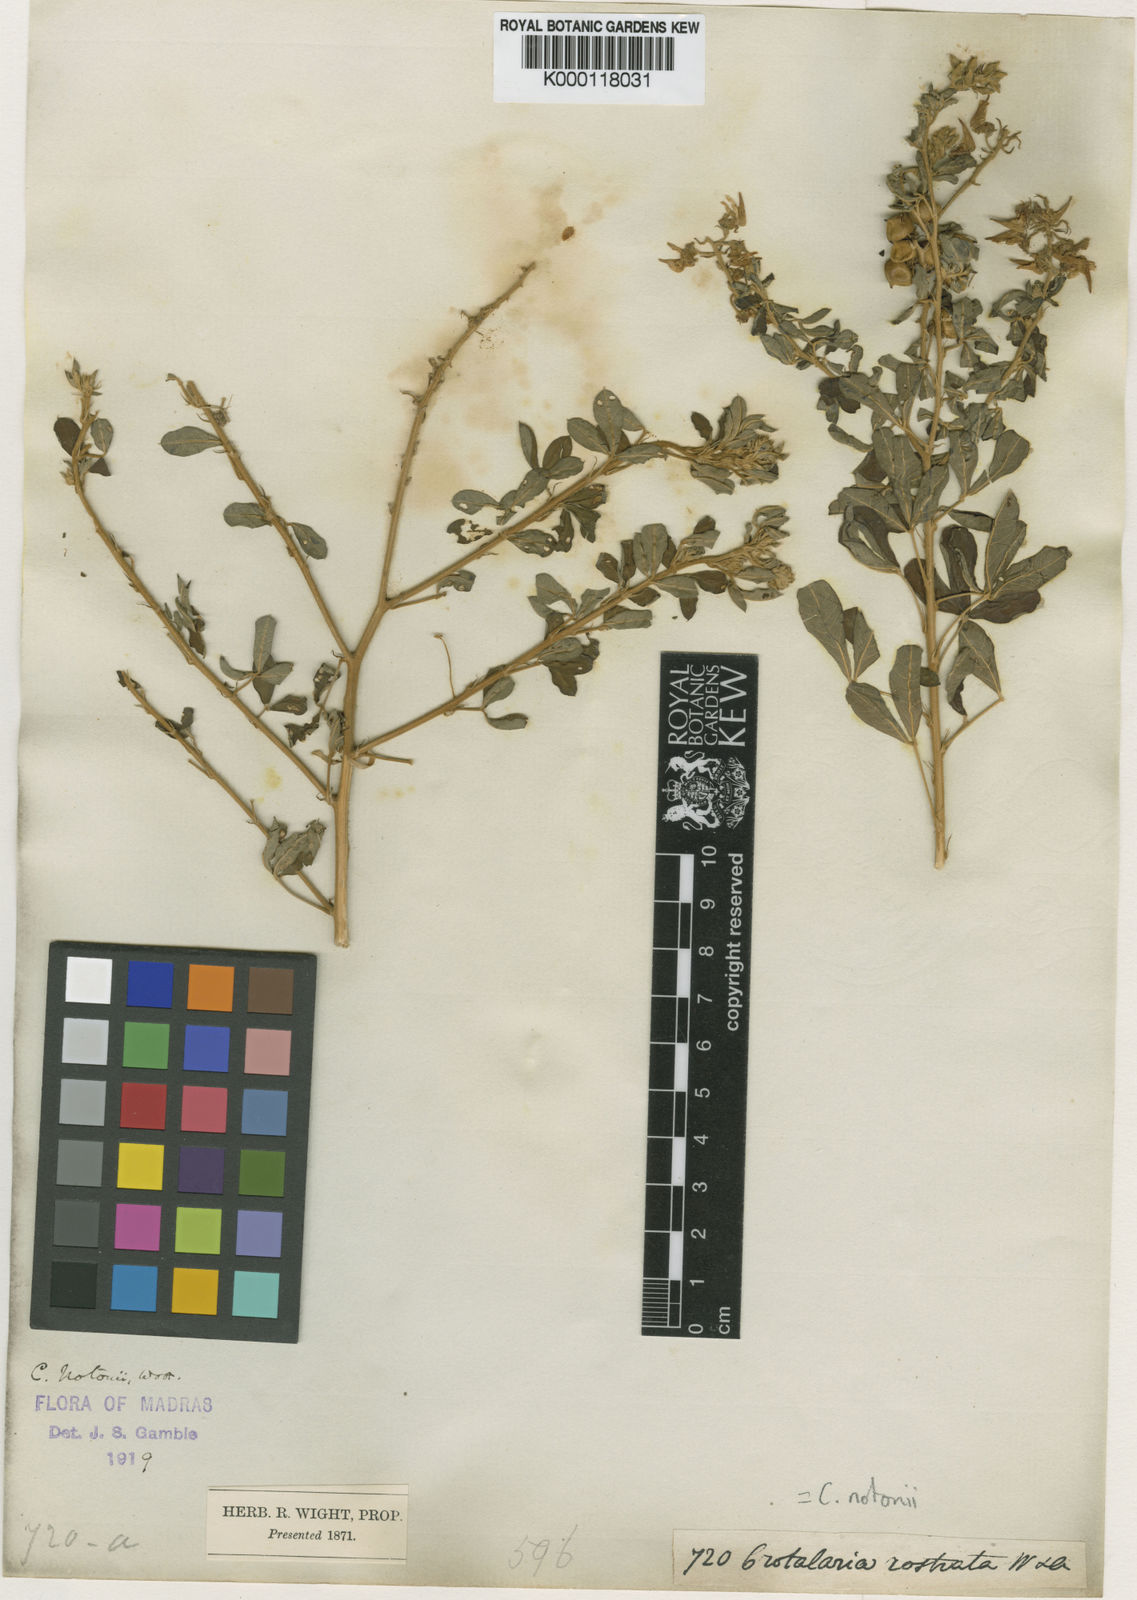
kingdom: Plantae
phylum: Tracheophyta
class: Magnoliopsida
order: Fabales
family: Fabaceae
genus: Crotalaria
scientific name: Crotalaria
